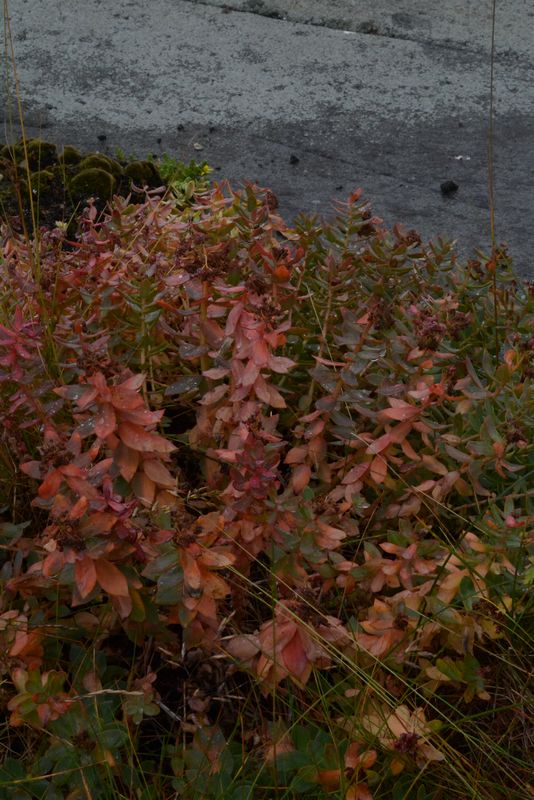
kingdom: Plantae
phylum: Tracheophyta
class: Magnoliopsida
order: Saxifragales
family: Crassulaceae
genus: Rhodiola
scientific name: Rhodiola rosea
